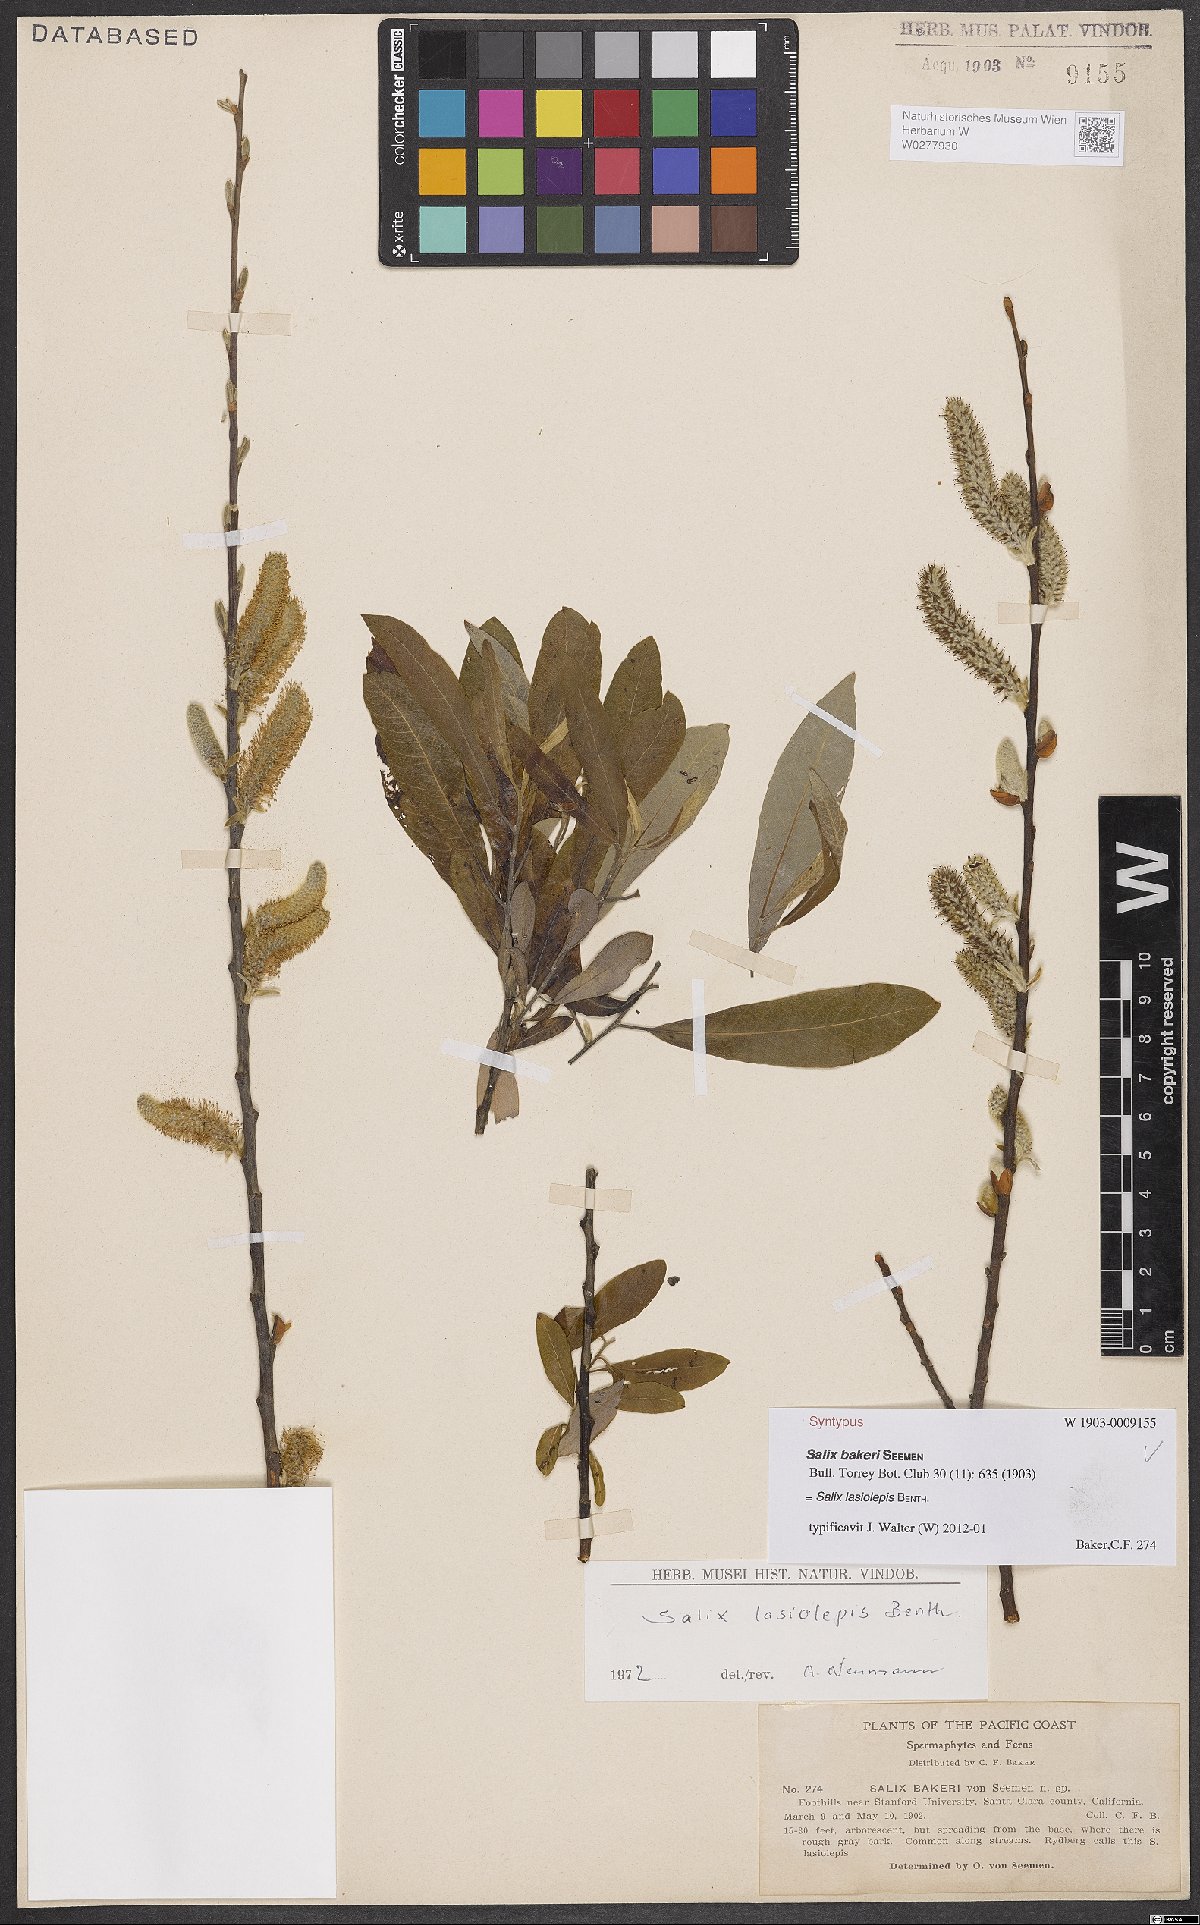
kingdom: Plantae
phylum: Tracheophyta
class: Magnoliopsida
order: Malpighiales
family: Salicaceae
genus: Salix
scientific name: Salix lasiolepis
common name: Arroyo willow
